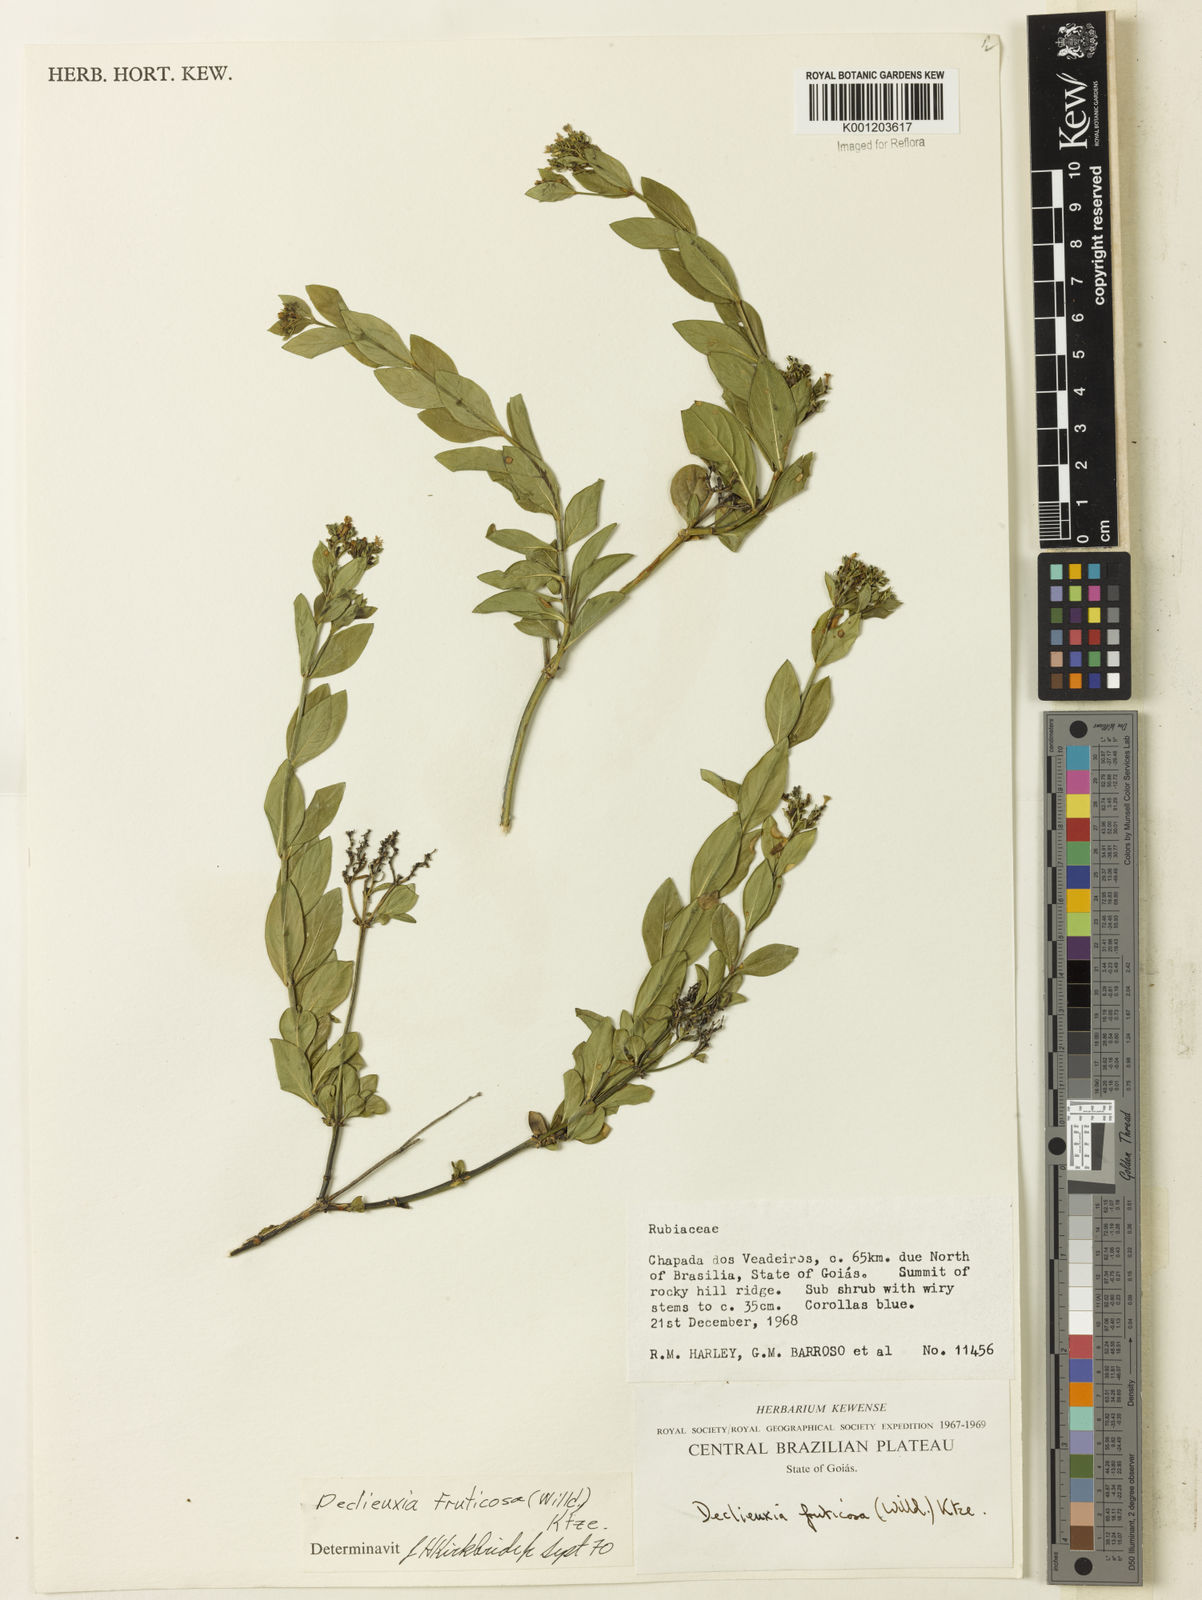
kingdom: Plantae
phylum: Tracheophyta
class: Magnoliopsida
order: Gentianales
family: Rubiaceae
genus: Declieuxia
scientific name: Declieuxia fruticosa
